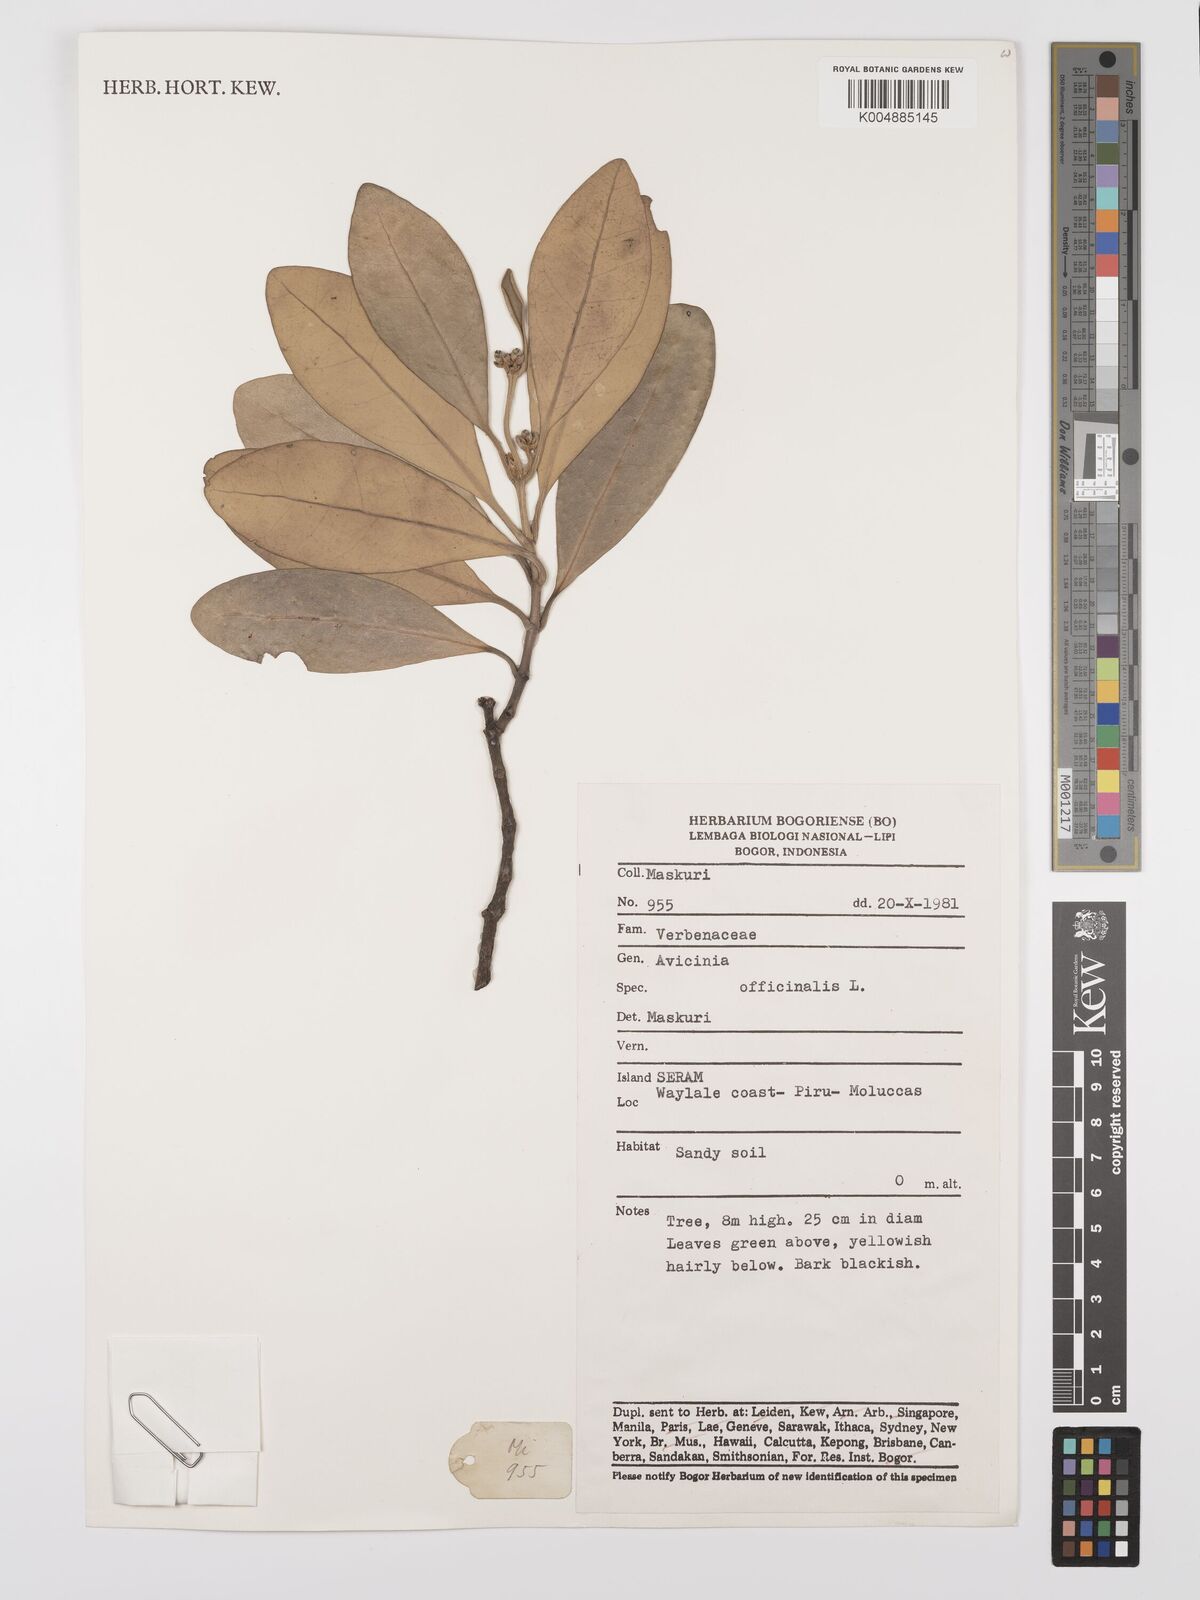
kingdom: Plantae
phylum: Tracheophyta
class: Magnoliopsida
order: Lamiales
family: Acanthaceae
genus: Avicennia
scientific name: Avicennia officinalis
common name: Baen
